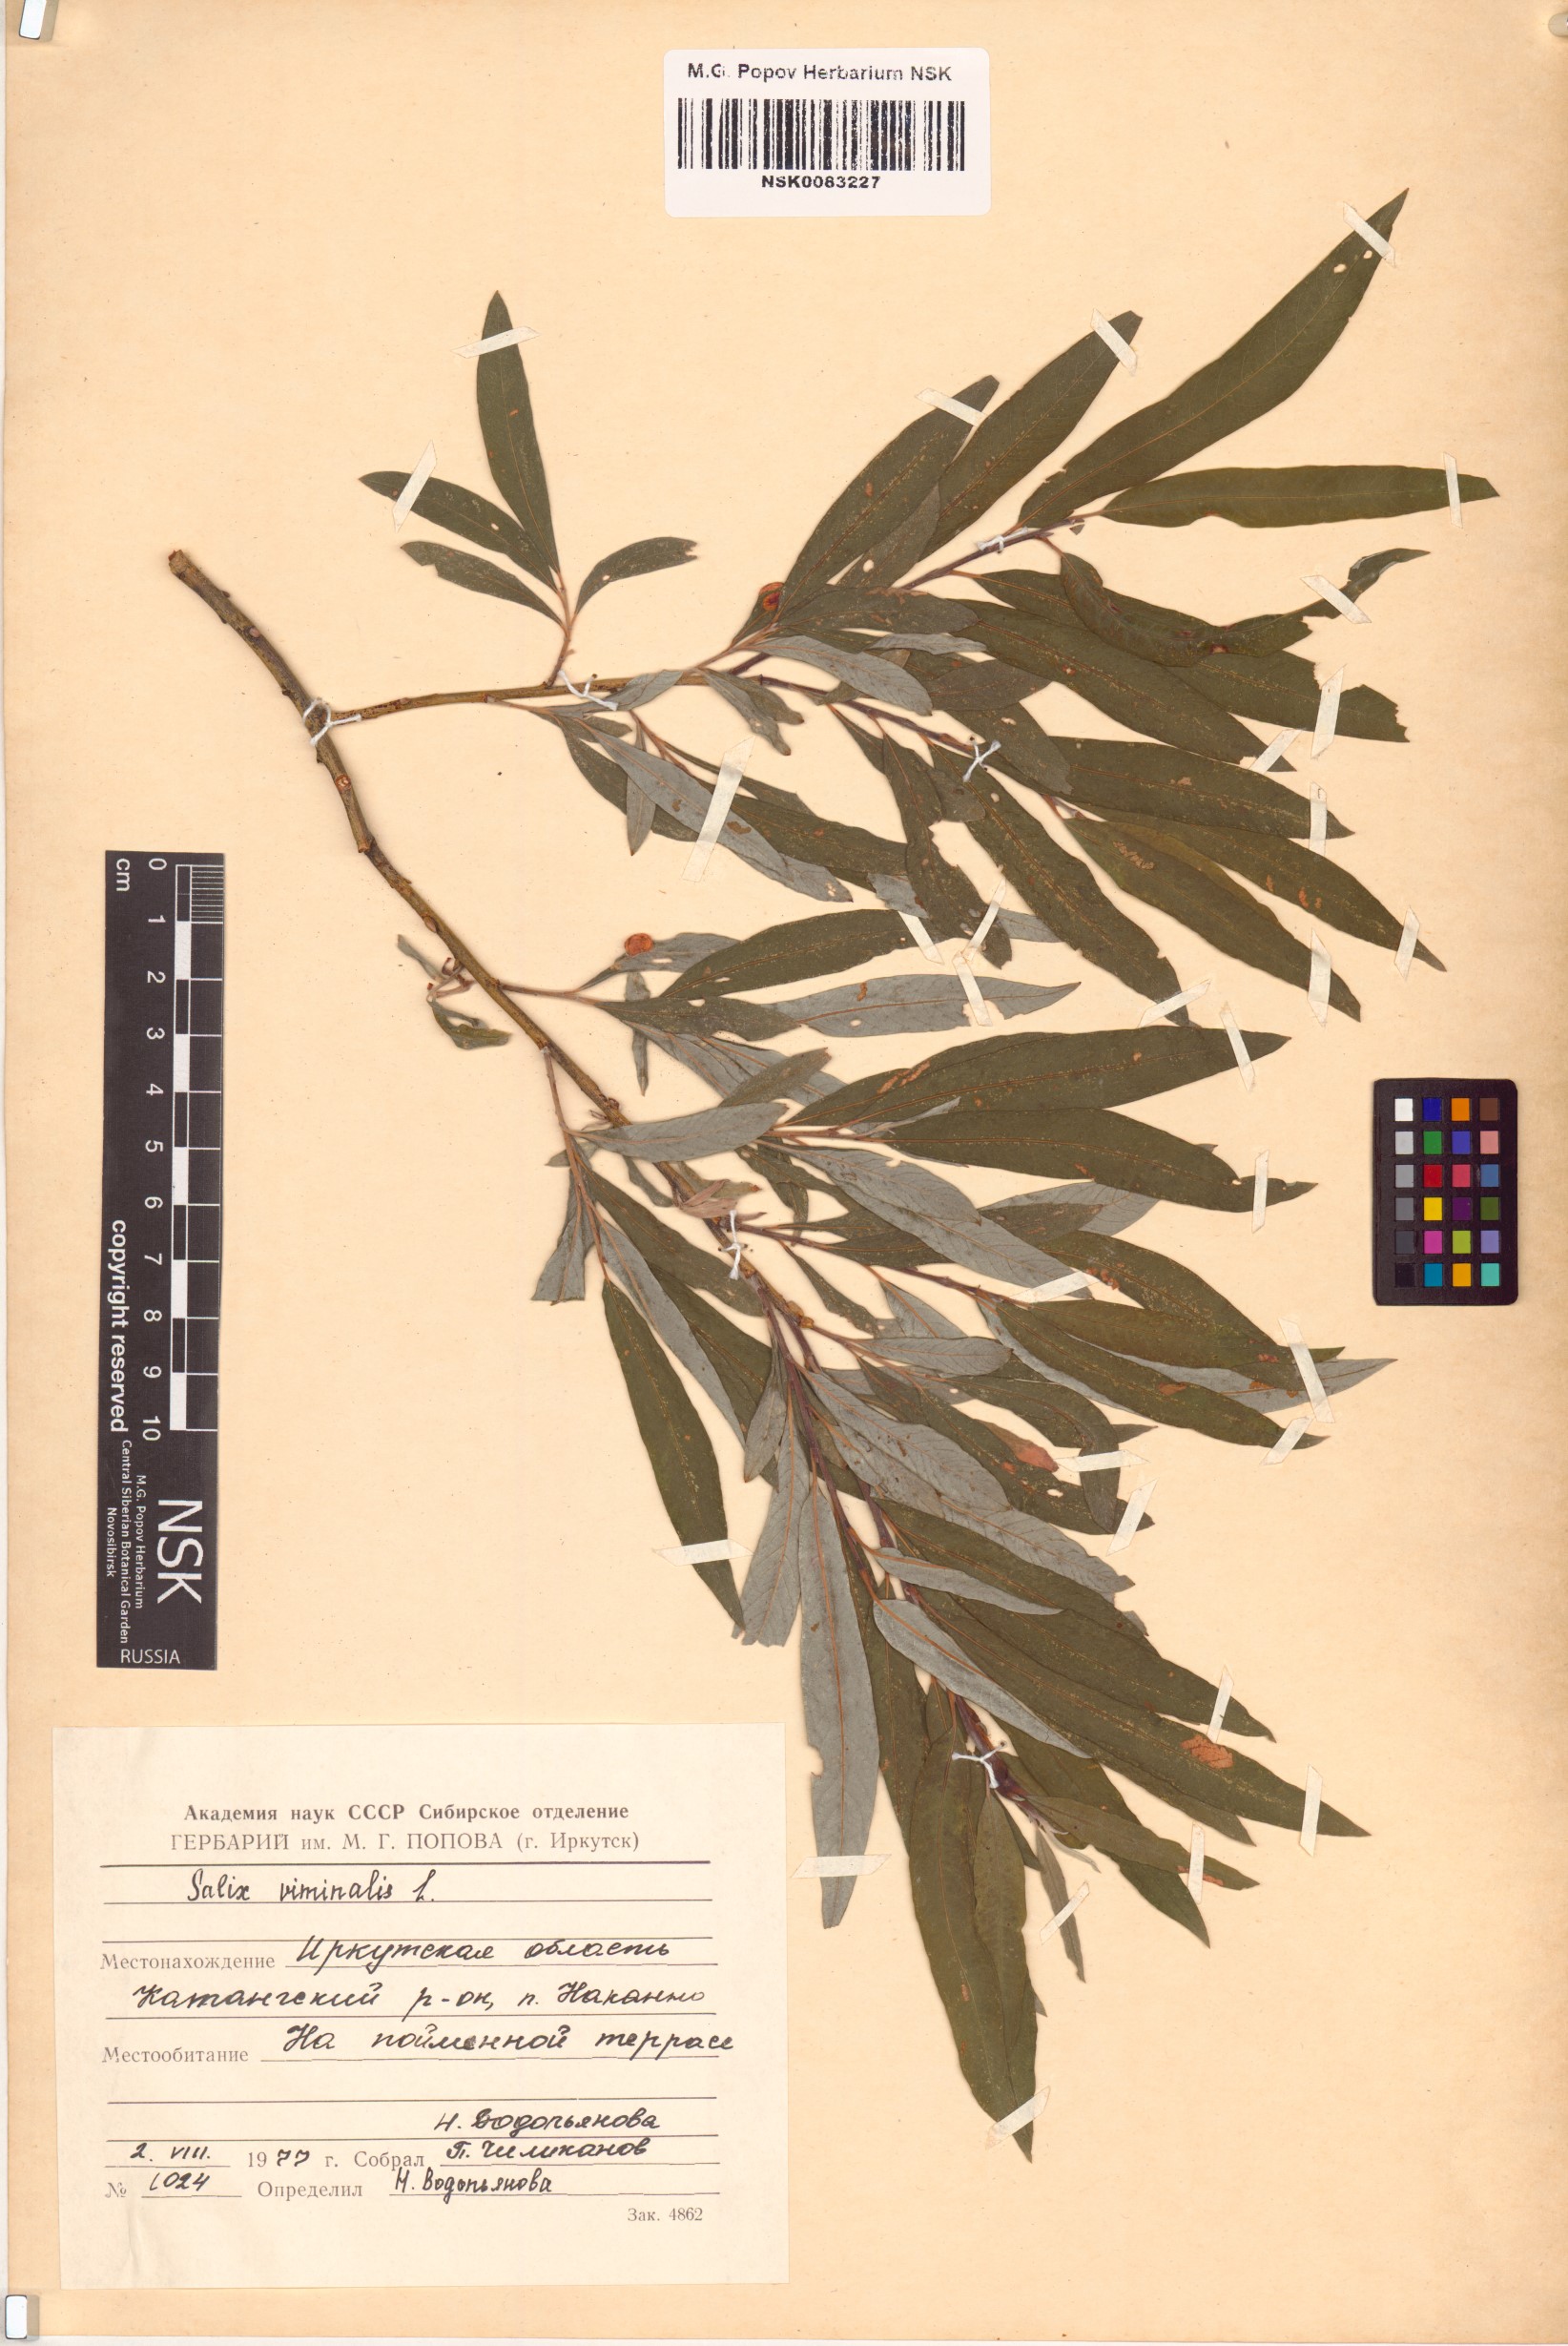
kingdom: Plantae
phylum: Tracheophyta
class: Magnoliopsida
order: Malpighiales
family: Salicaceae
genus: Salix
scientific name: Salix viminalis
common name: Osier
